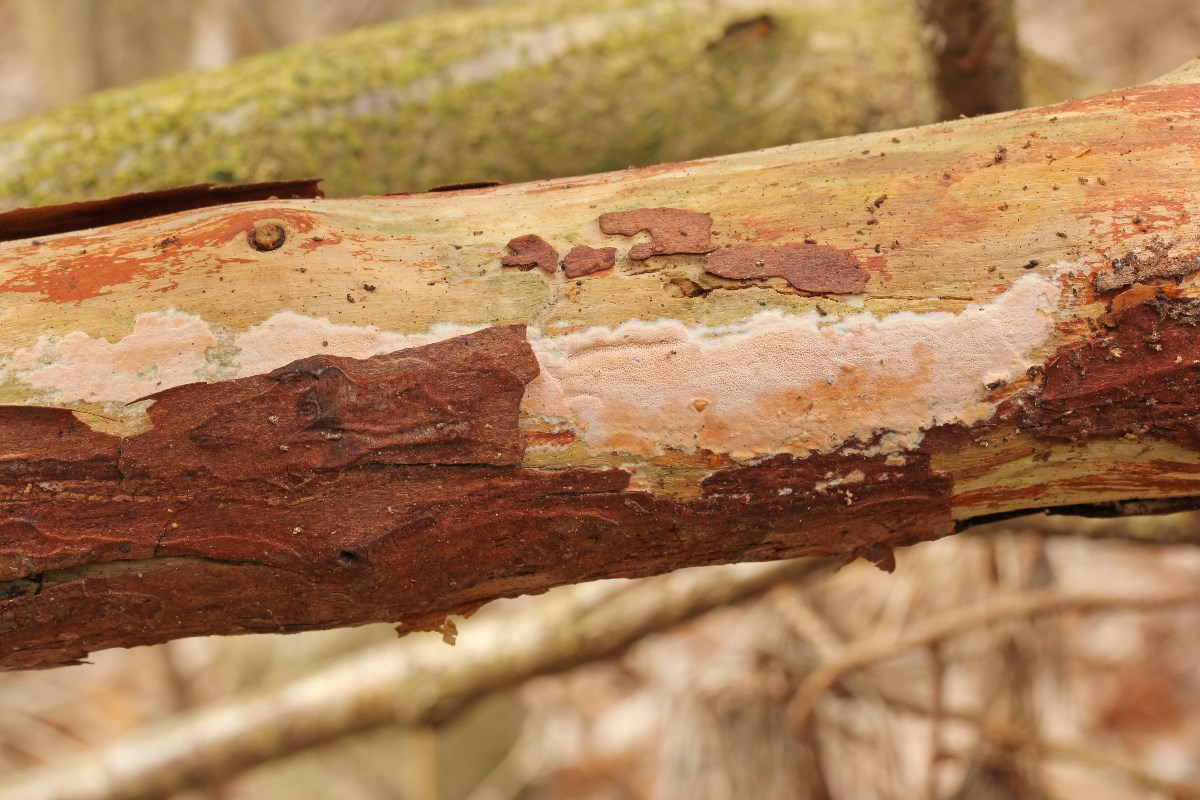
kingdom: Fungi
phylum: Basidiomycota
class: Agaricomycetes
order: Polyporales
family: Irpicaceae
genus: Meruliopsis
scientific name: Meruliopsis taxicola
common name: purpurbrun foldporesvamp
